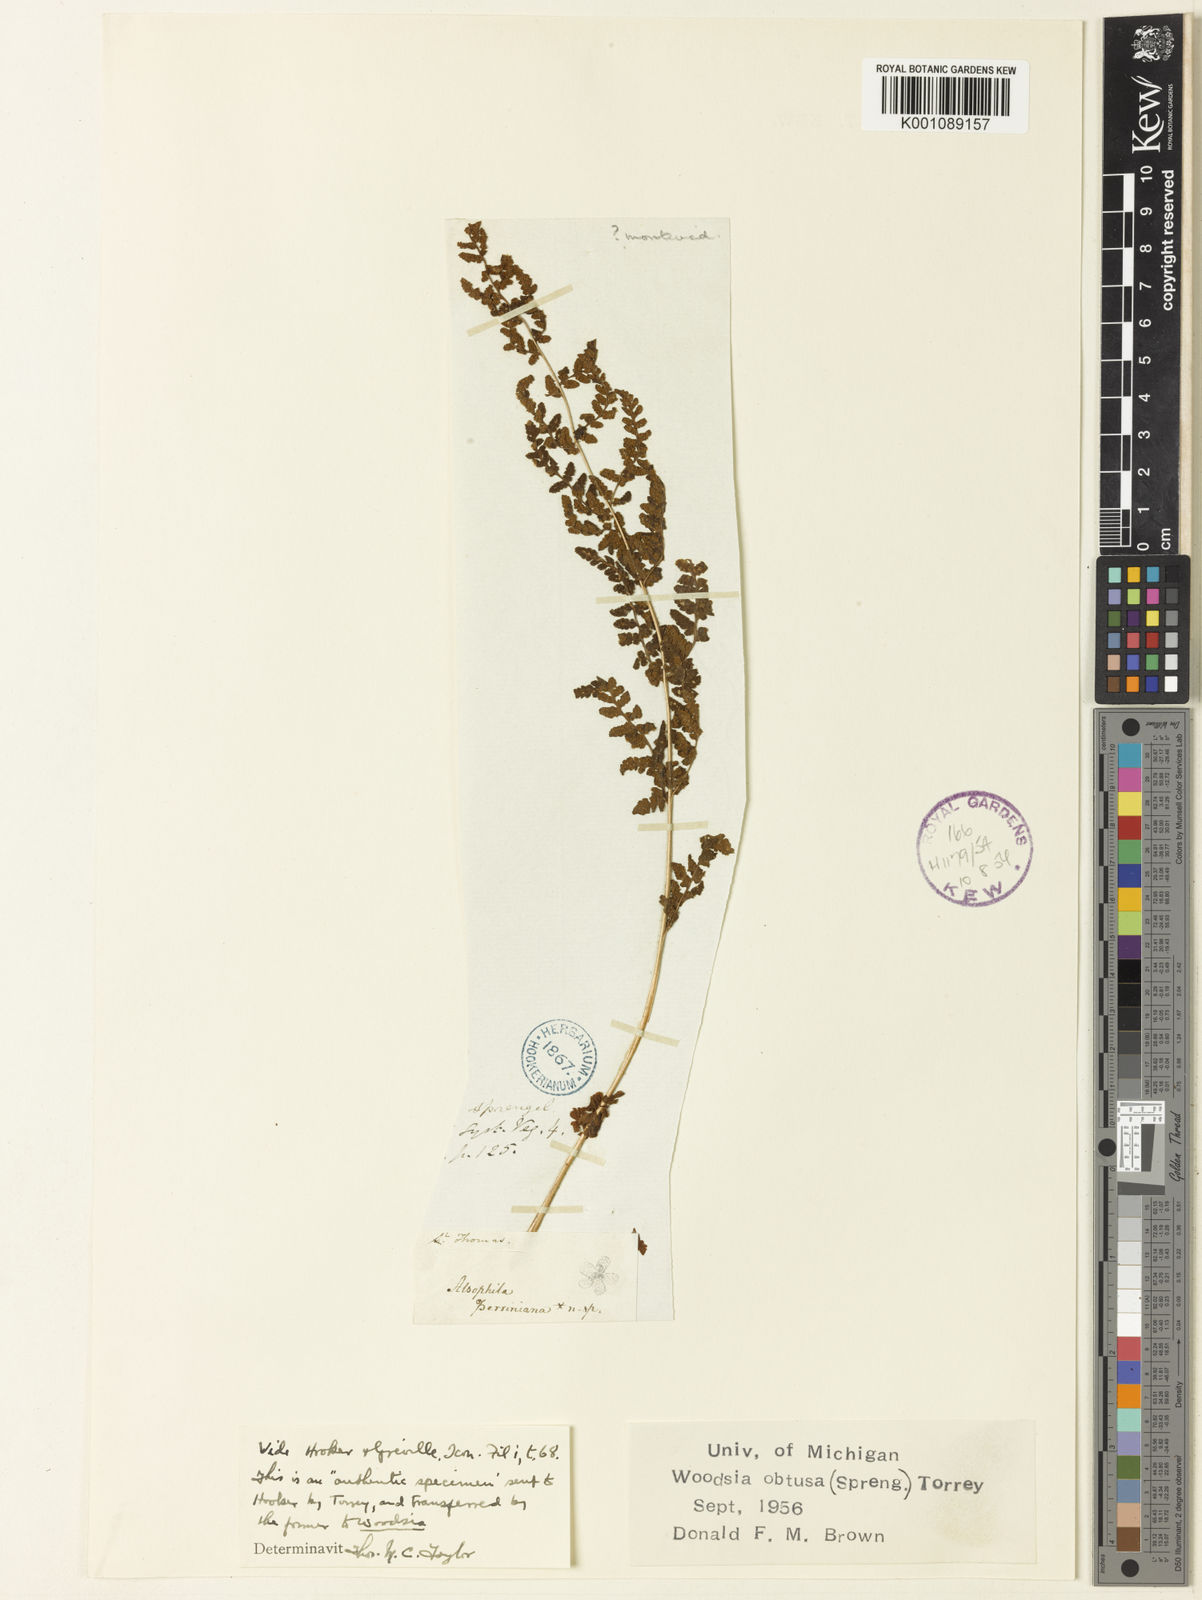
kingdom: Plantae
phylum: Tracheophyta
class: Polypodiopsida
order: Polypodiales
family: Woodsiaceae
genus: Physematium
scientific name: Physematium obtusum
